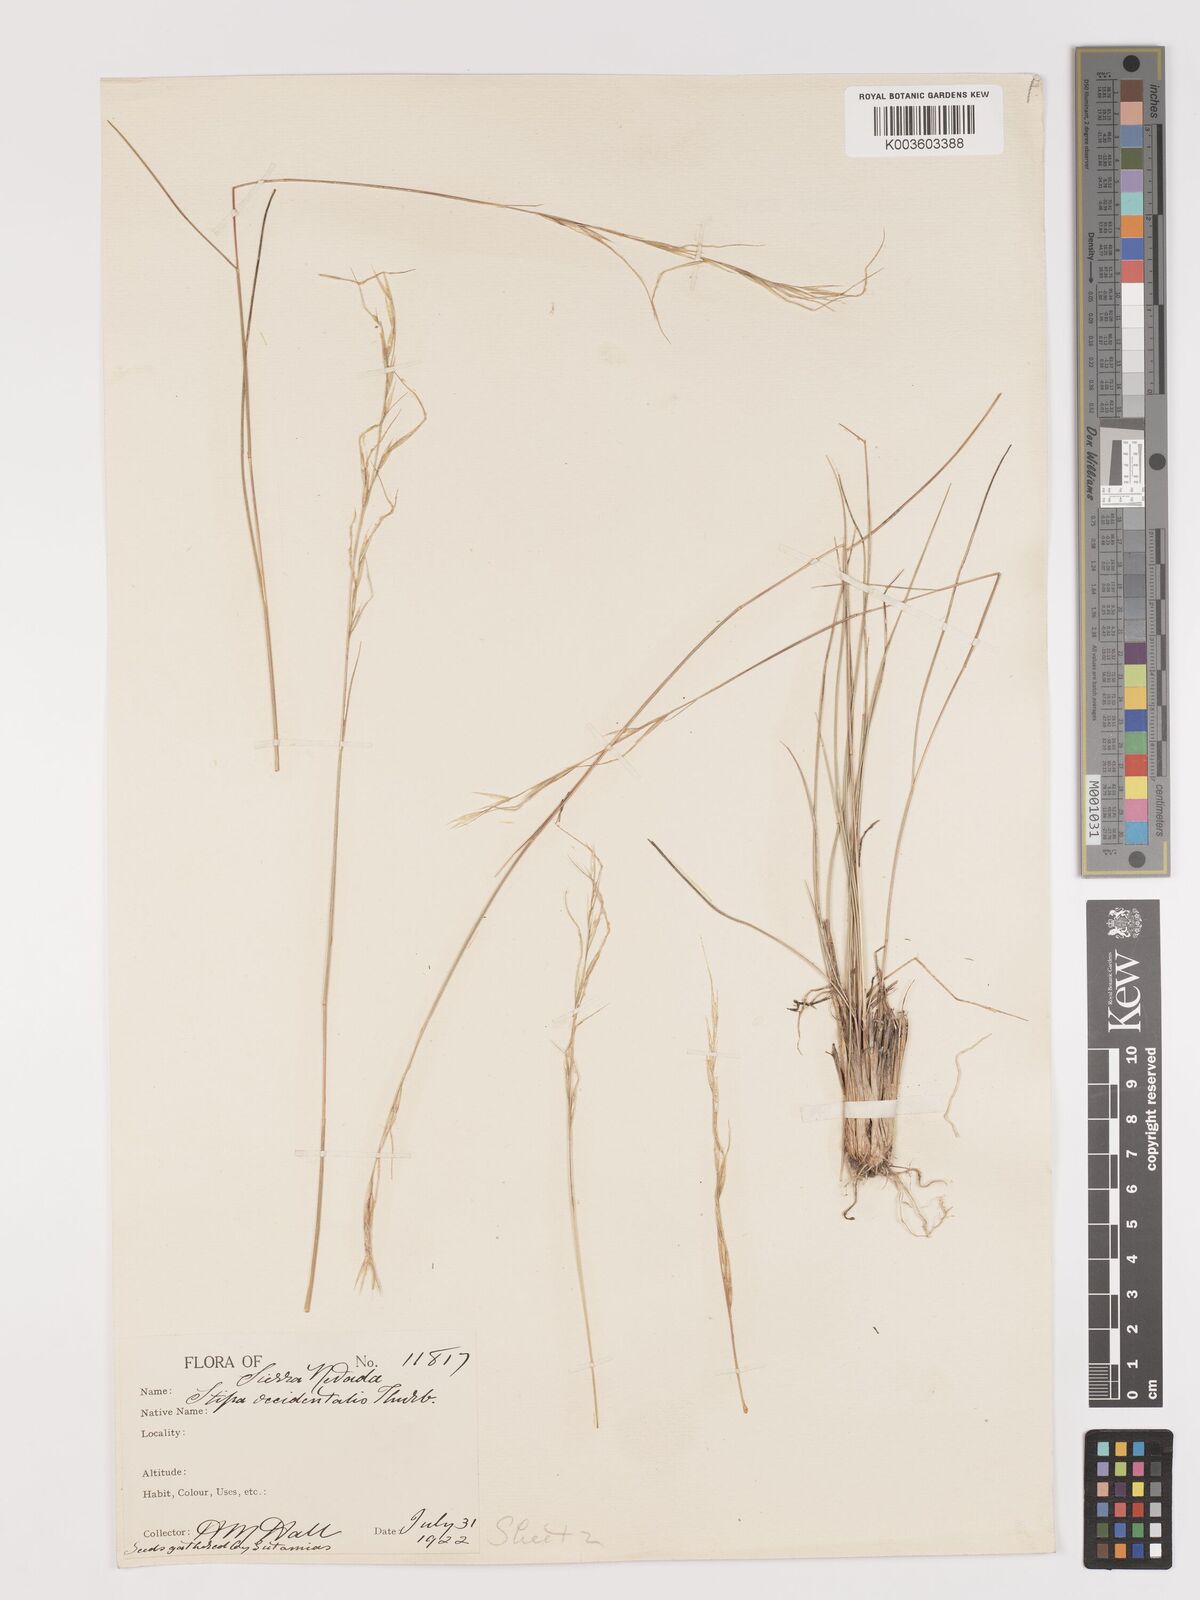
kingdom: Plantae
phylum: Tracheophyta
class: Liliopsida
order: Poales
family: Poaceae
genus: Eriocoma
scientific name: Eriocoma thurberiana
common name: Thurber's needlegrass
